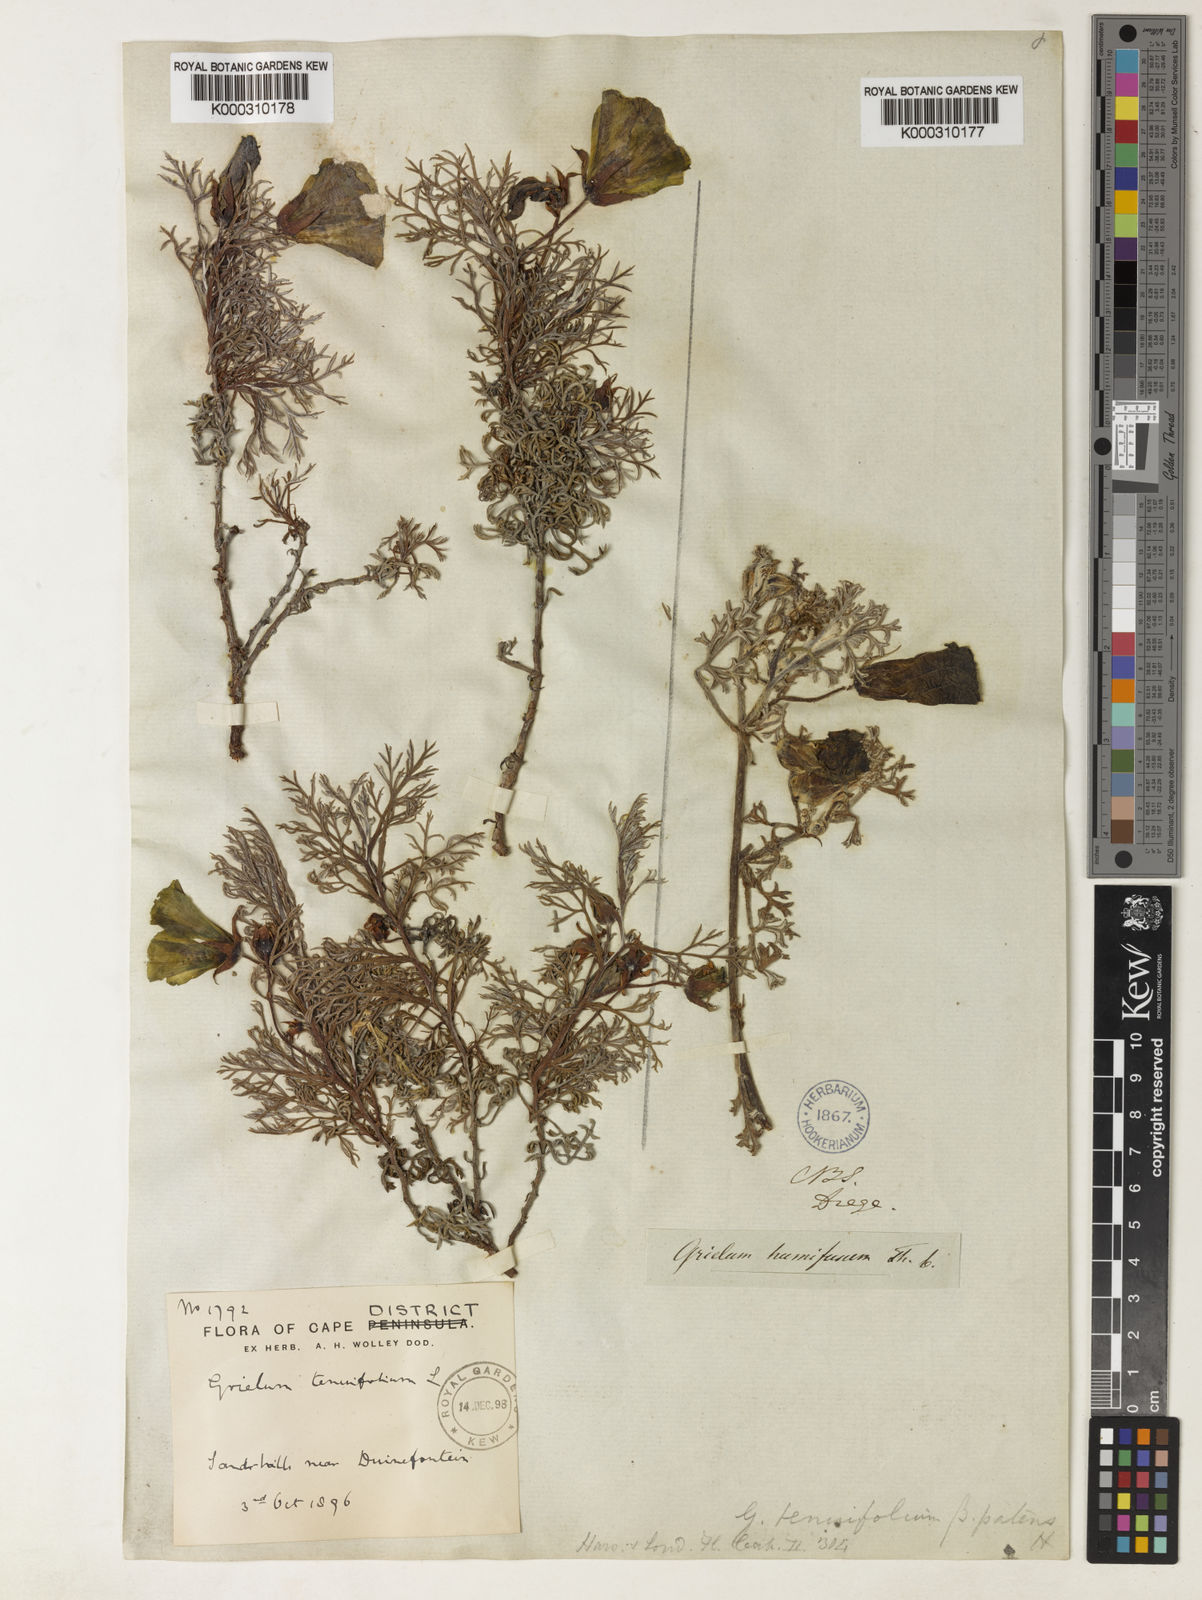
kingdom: Plantae
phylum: Tracheophyta
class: Magnoliopsida
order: Malvales
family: Neuradaceae
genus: Grielum
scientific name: Grielum grandiflorum
